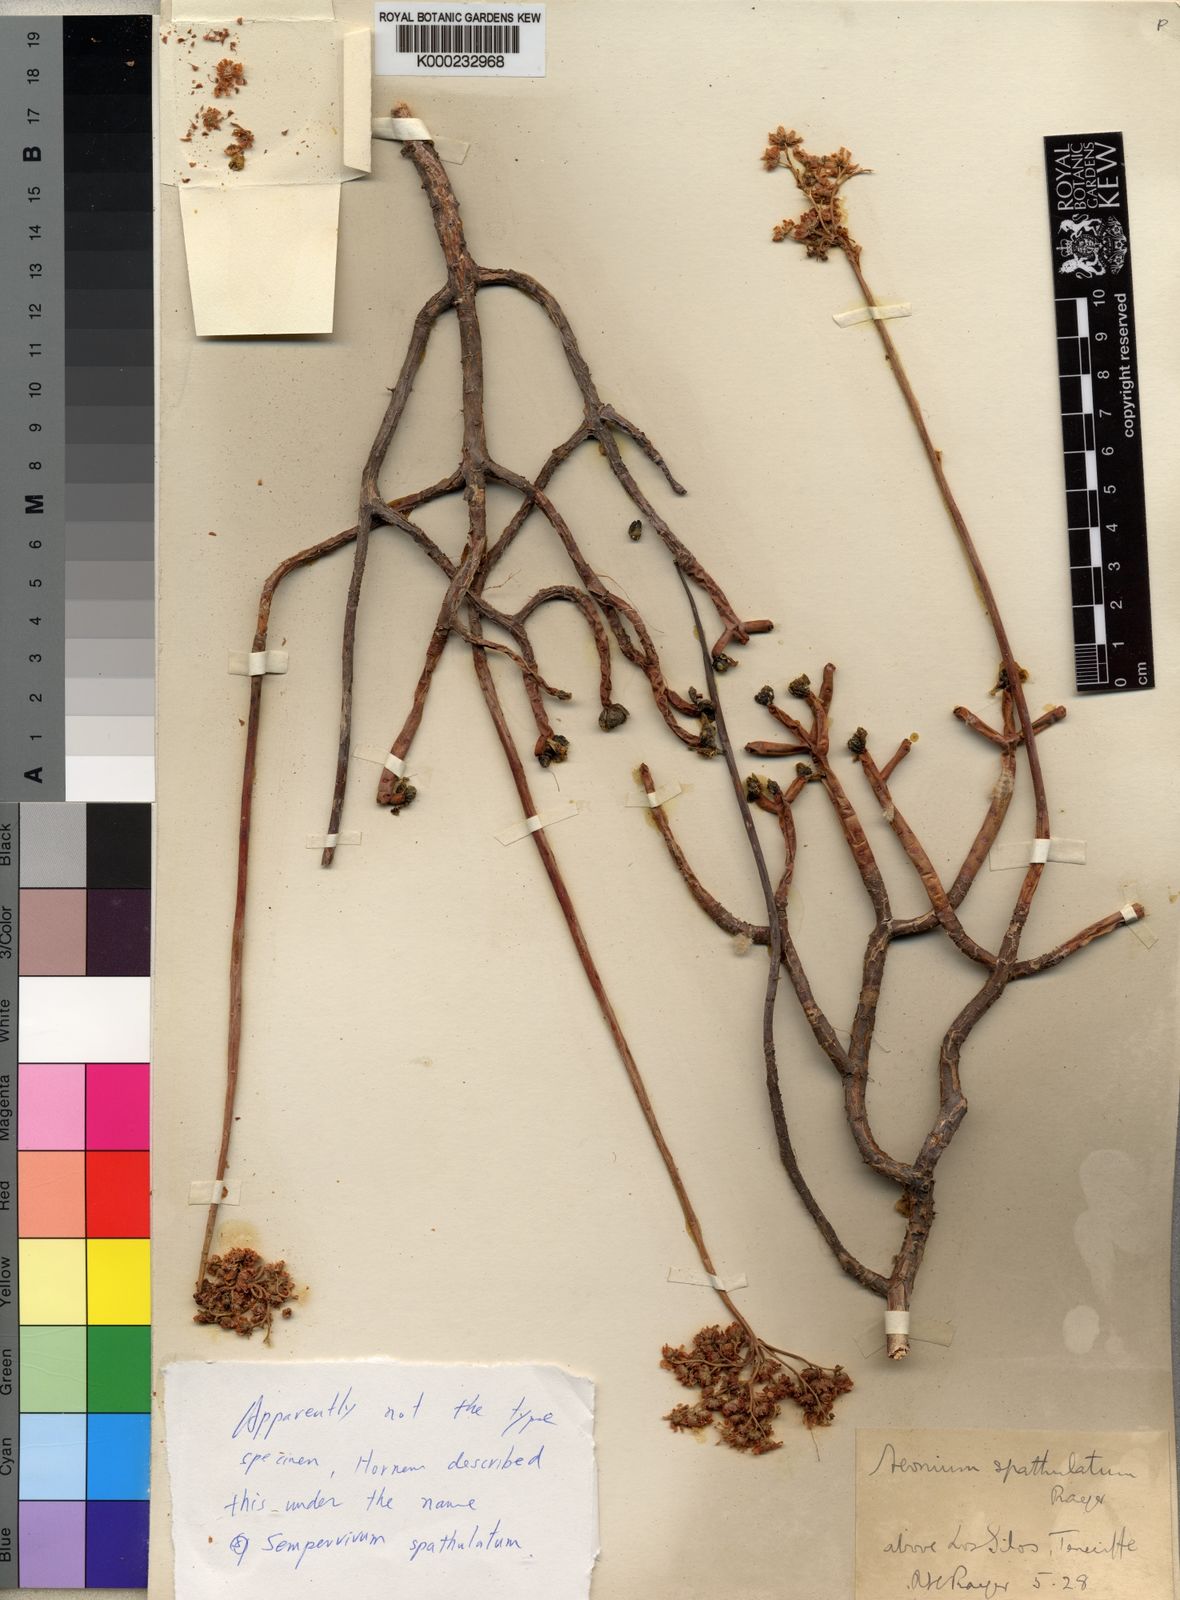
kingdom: Plantae
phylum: Tracheophyta
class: Magnoliopsida
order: Saxifragales
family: Crassulaceae
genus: Aeonium
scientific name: Aeonium spathulatum
